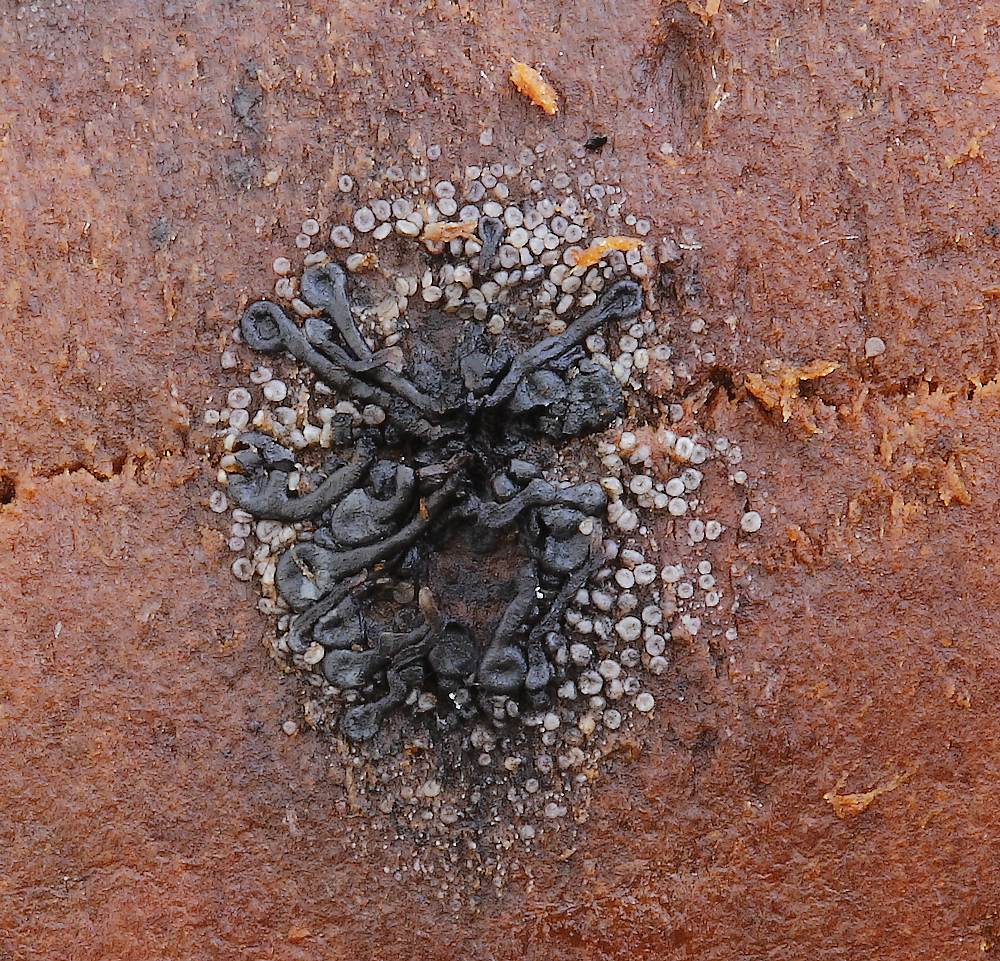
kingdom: Fungi
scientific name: Fungi
